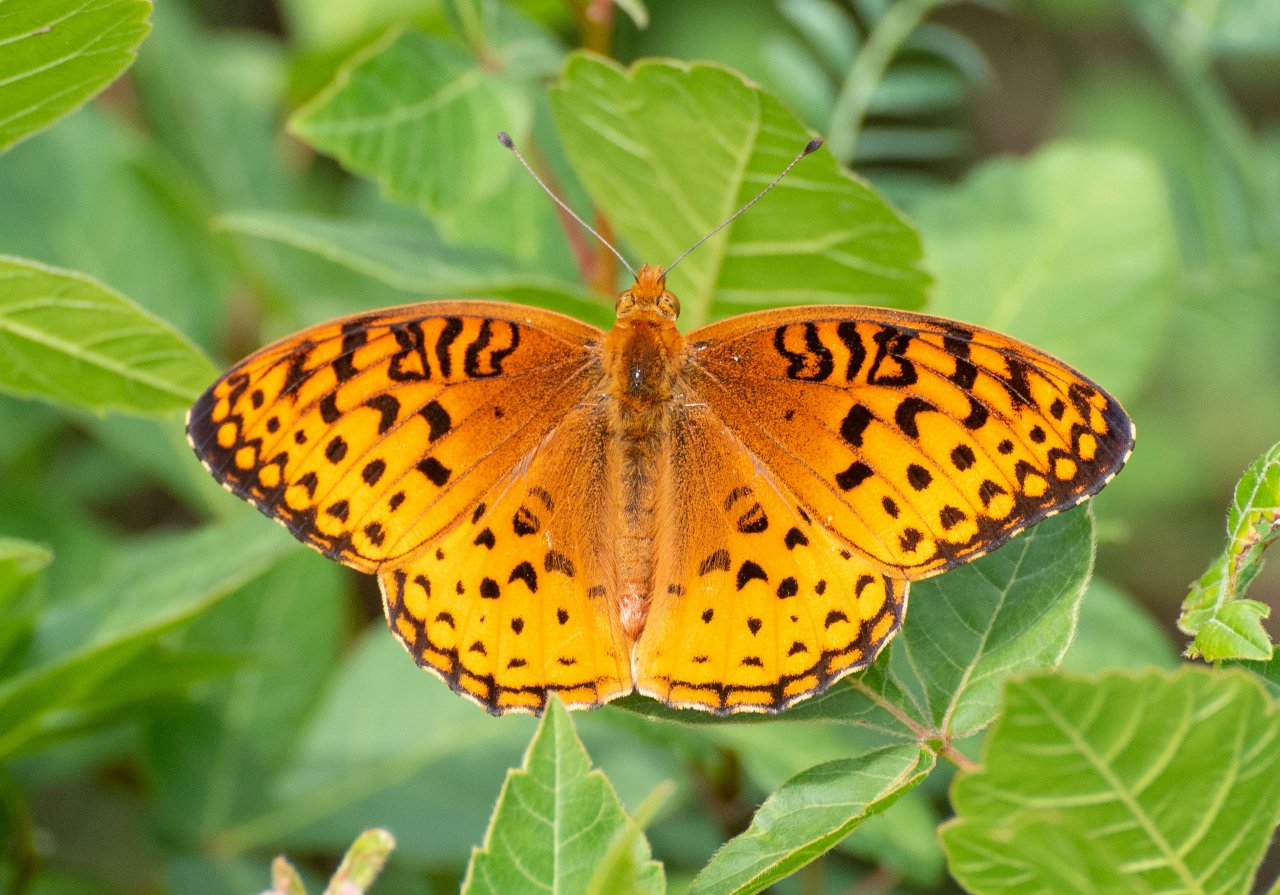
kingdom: Animalia
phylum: Arthropoda
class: Insecta
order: Lepidoptera
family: Nymphalidae
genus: Speyeria
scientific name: Speyeria aphrodite
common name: Aphrodite Fritillary
